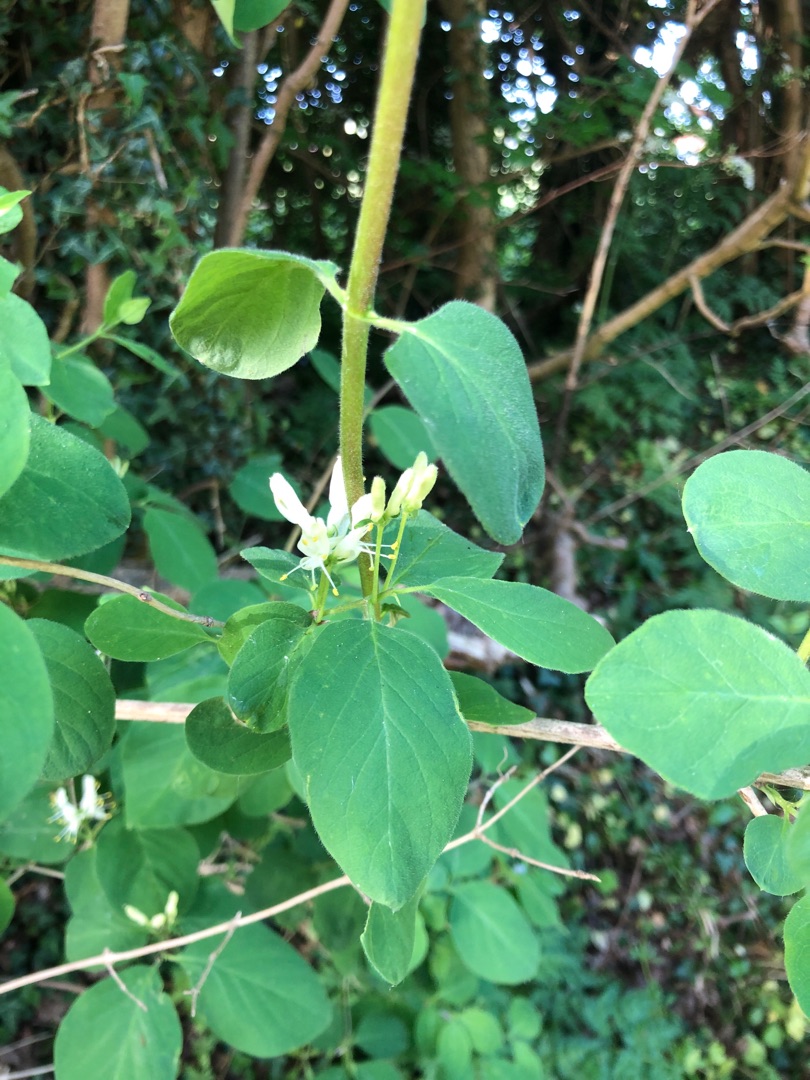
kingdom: Plantae
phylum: Tracheophyta
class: Magnoliopsida
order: Dipsacales
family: Caprifoliaceae
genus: Lonicera
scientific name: Lonicera xylosteum
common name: Dunet gedeblad
